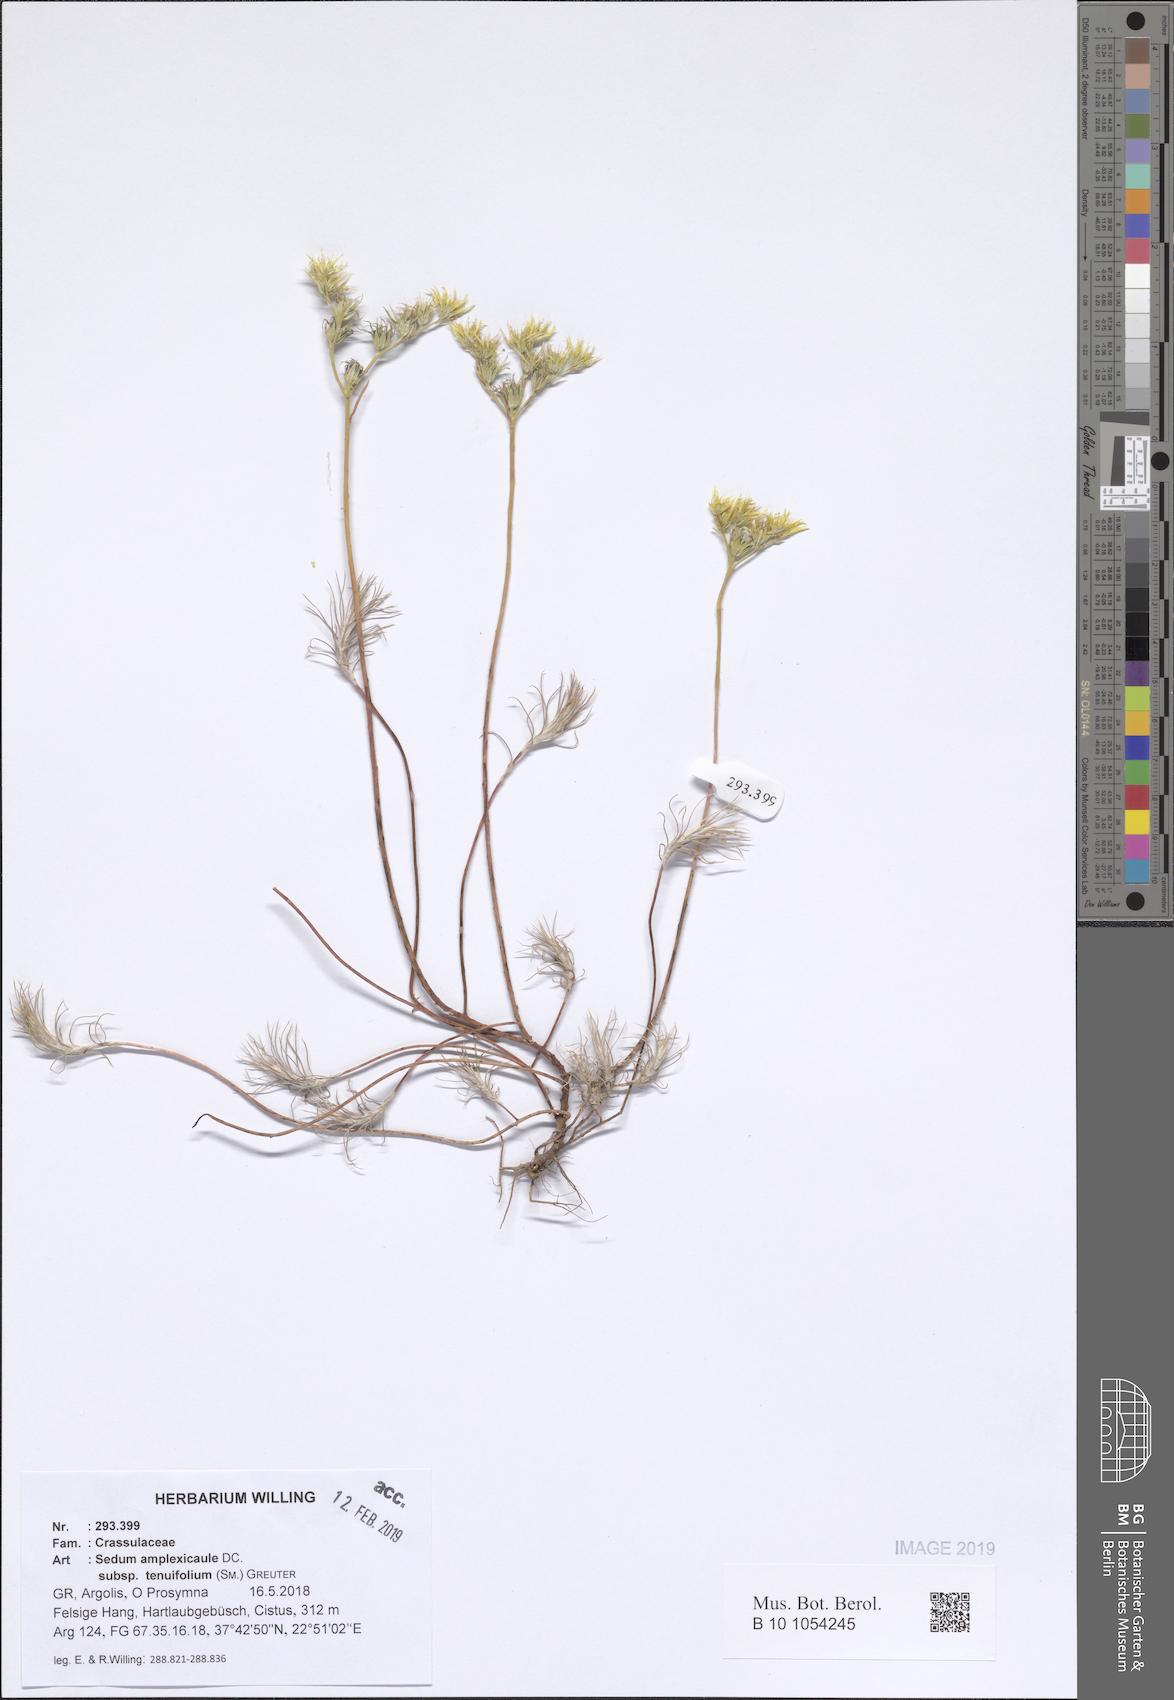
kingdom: Plantae
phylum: Tracheophyta
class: Magnoliopsida
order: Saxifragales
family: Crassulaceae
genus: Petrosedum
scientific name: Petrosedum tenuifolium
